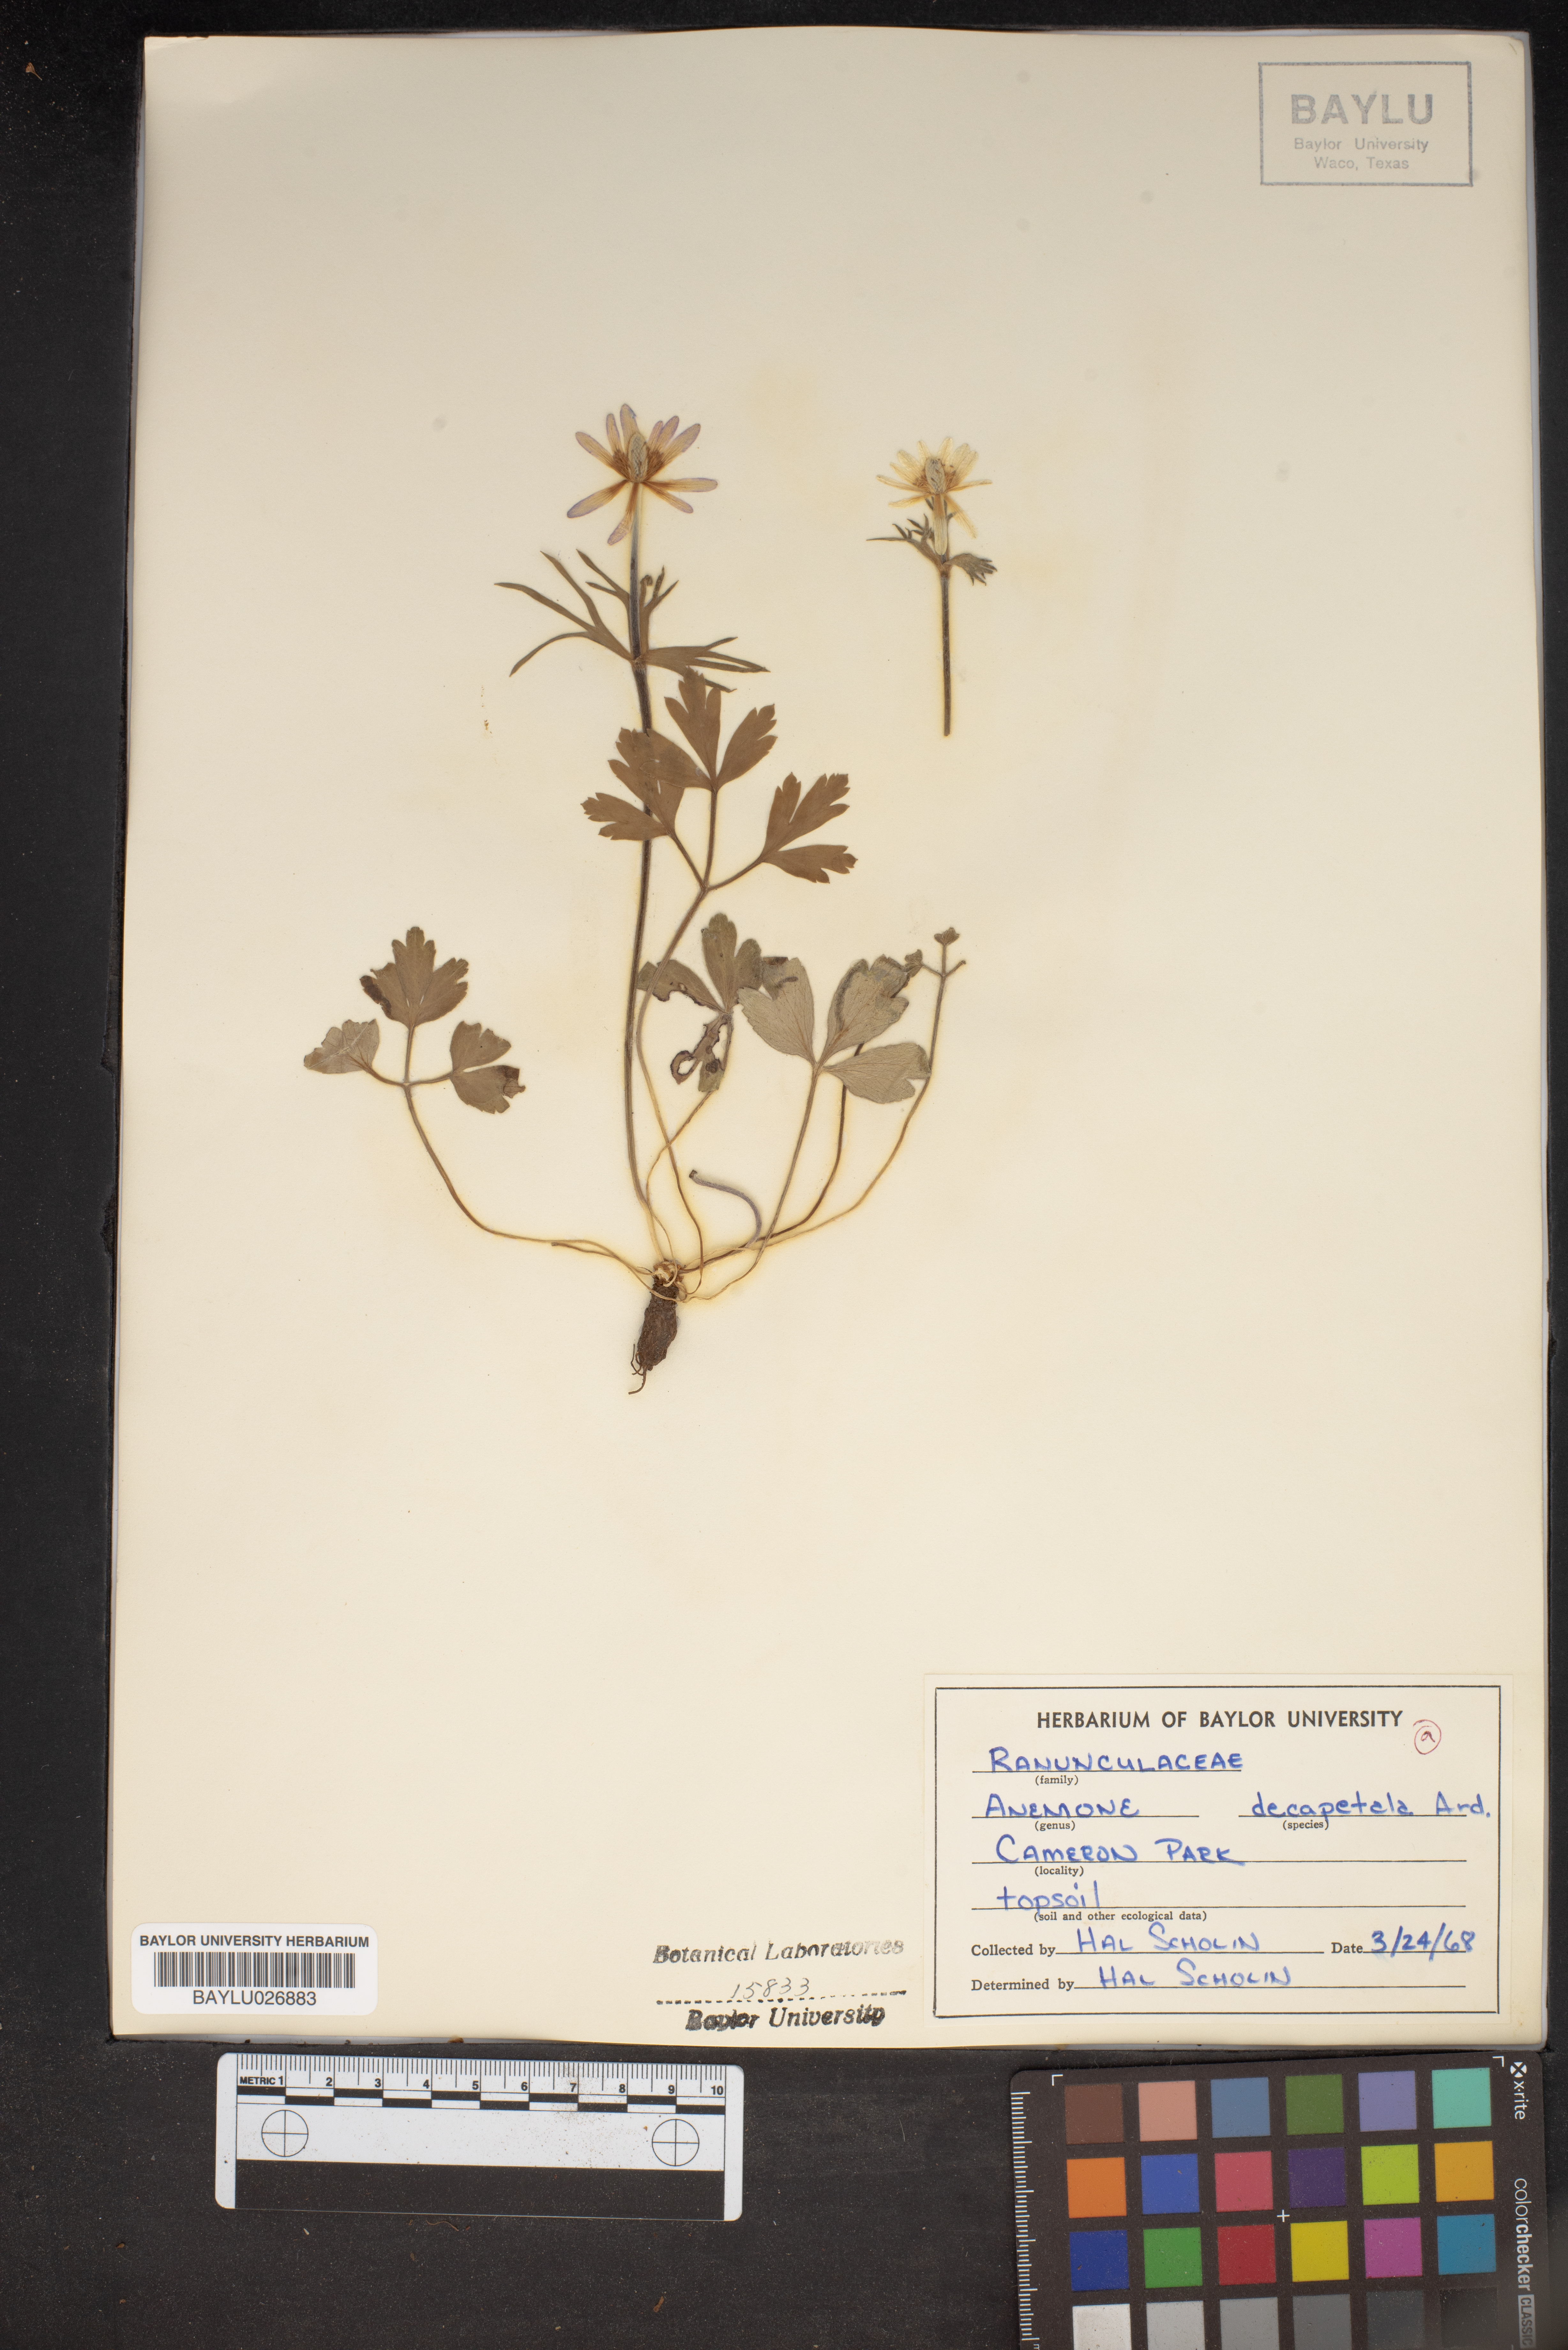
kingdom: Plantae
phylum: Tracheophyta
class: Magnoliopsida
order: Ranunculales
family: Ranunculaceae
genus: Anemone
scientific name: Anemone decapetala
